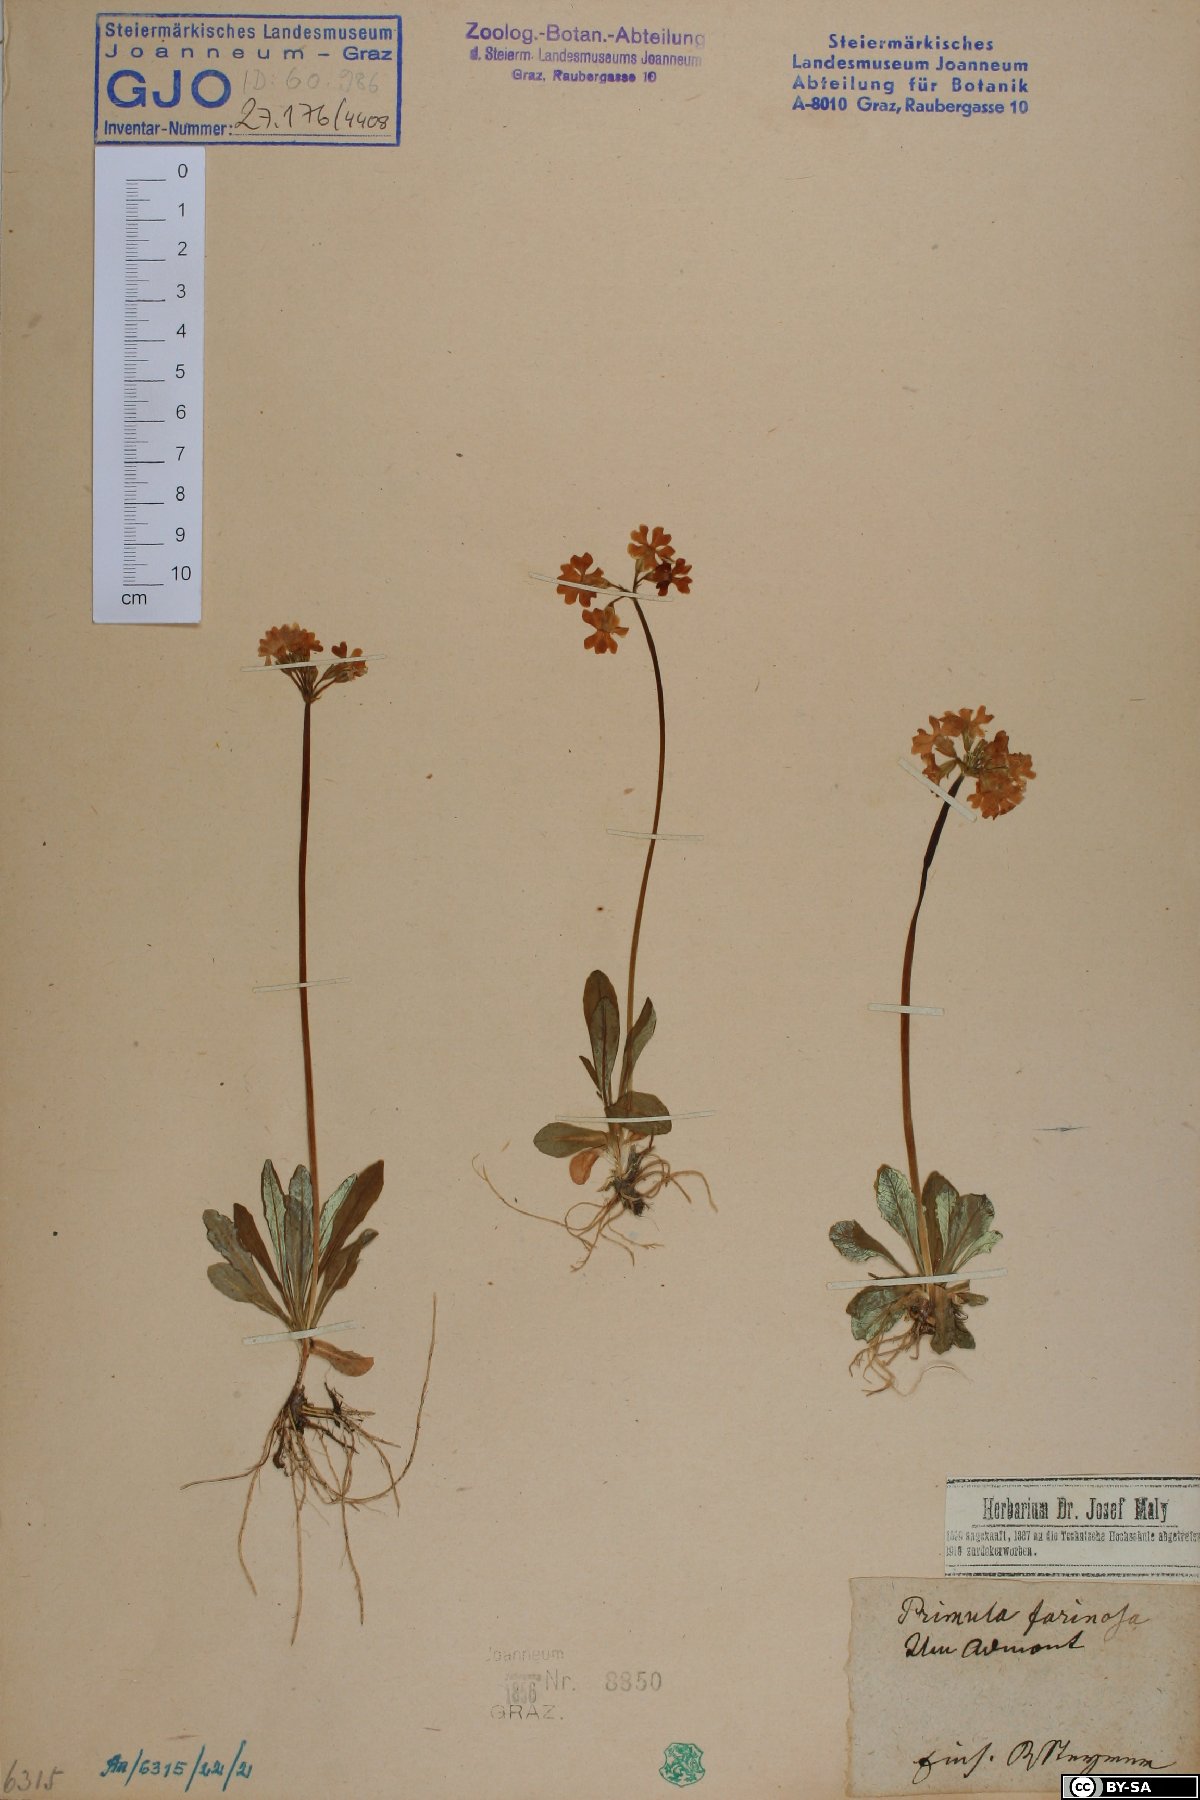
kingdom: Plantae
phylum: Tracheophyta
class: Magnoliopsida
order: Ericales
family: Primulaceae
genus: Primula
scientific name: Primula farinosa
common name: Bird's-eye primrose
